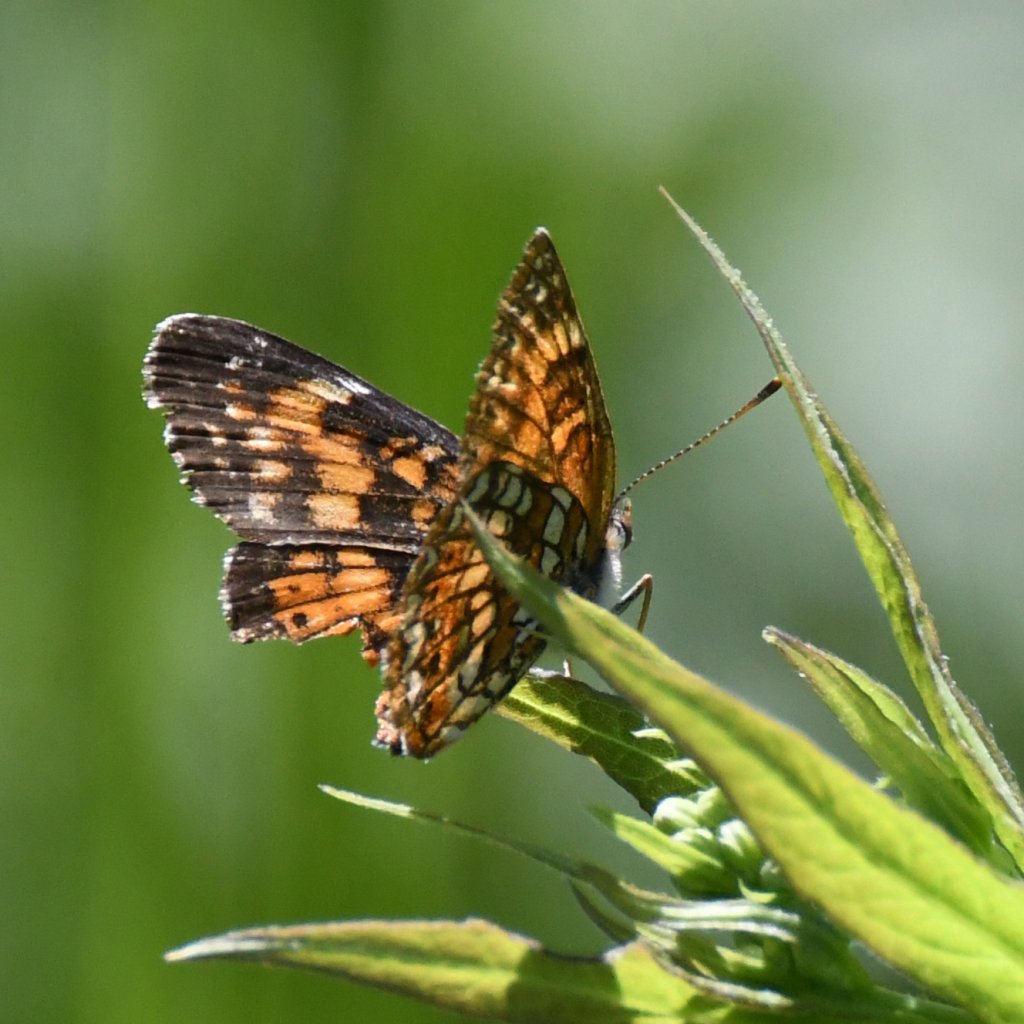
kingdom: Animalia
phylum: Arthropoda
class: Insecta
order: Lepidoptera
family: Nymphalidae
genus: Chlosyne
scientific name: Chlosyne harrisii
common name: Harris's Checkerspot
